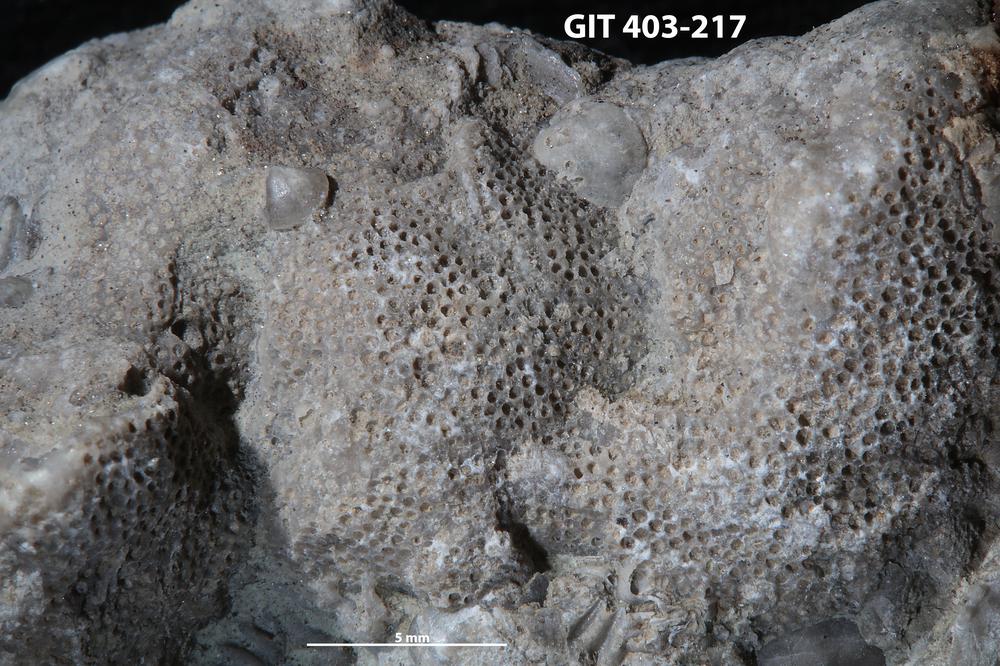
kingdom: Animalia
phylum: Bryozoa
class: Stenolaemata
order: Cystoporida
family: Fistuliporidae
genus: Fistulipora
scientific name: Fistulipora przhidolensis
